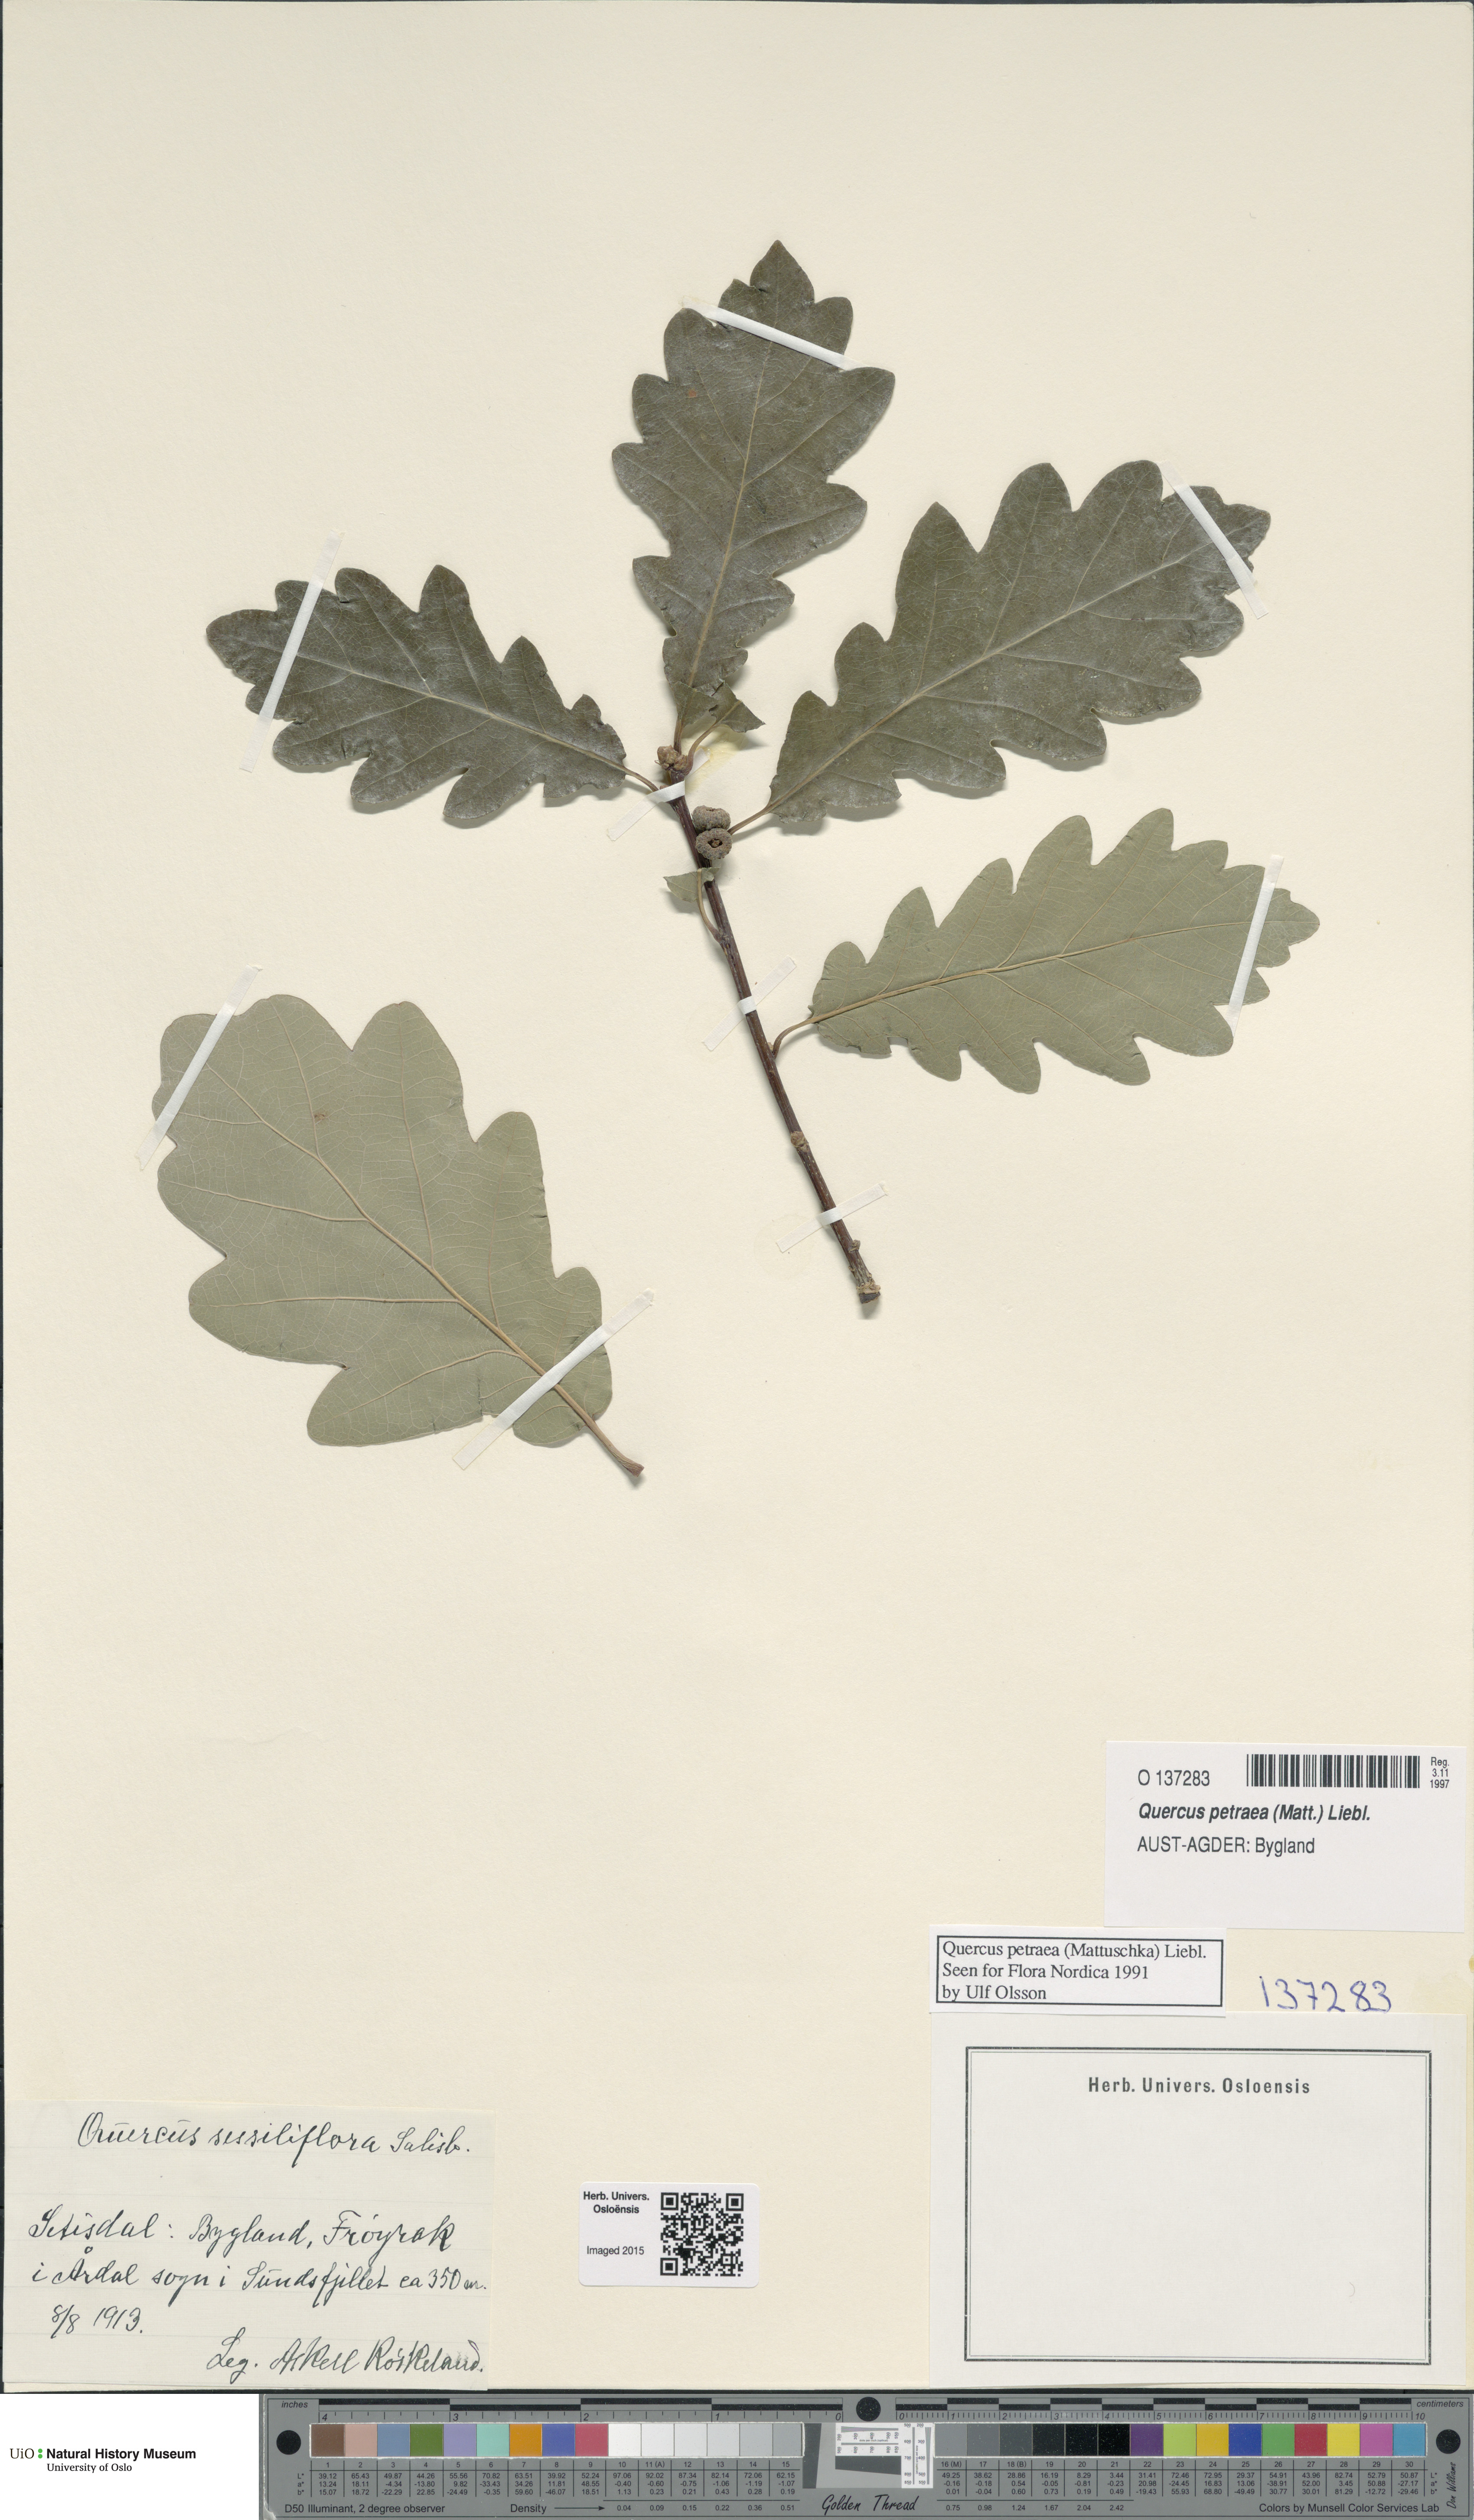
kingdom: Plantae
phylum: Tracheophyta
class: Magnoliopsida
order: Fagales
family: Fagaceae
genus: Quercus
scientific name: Quercus petraea
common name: Sessile oak
